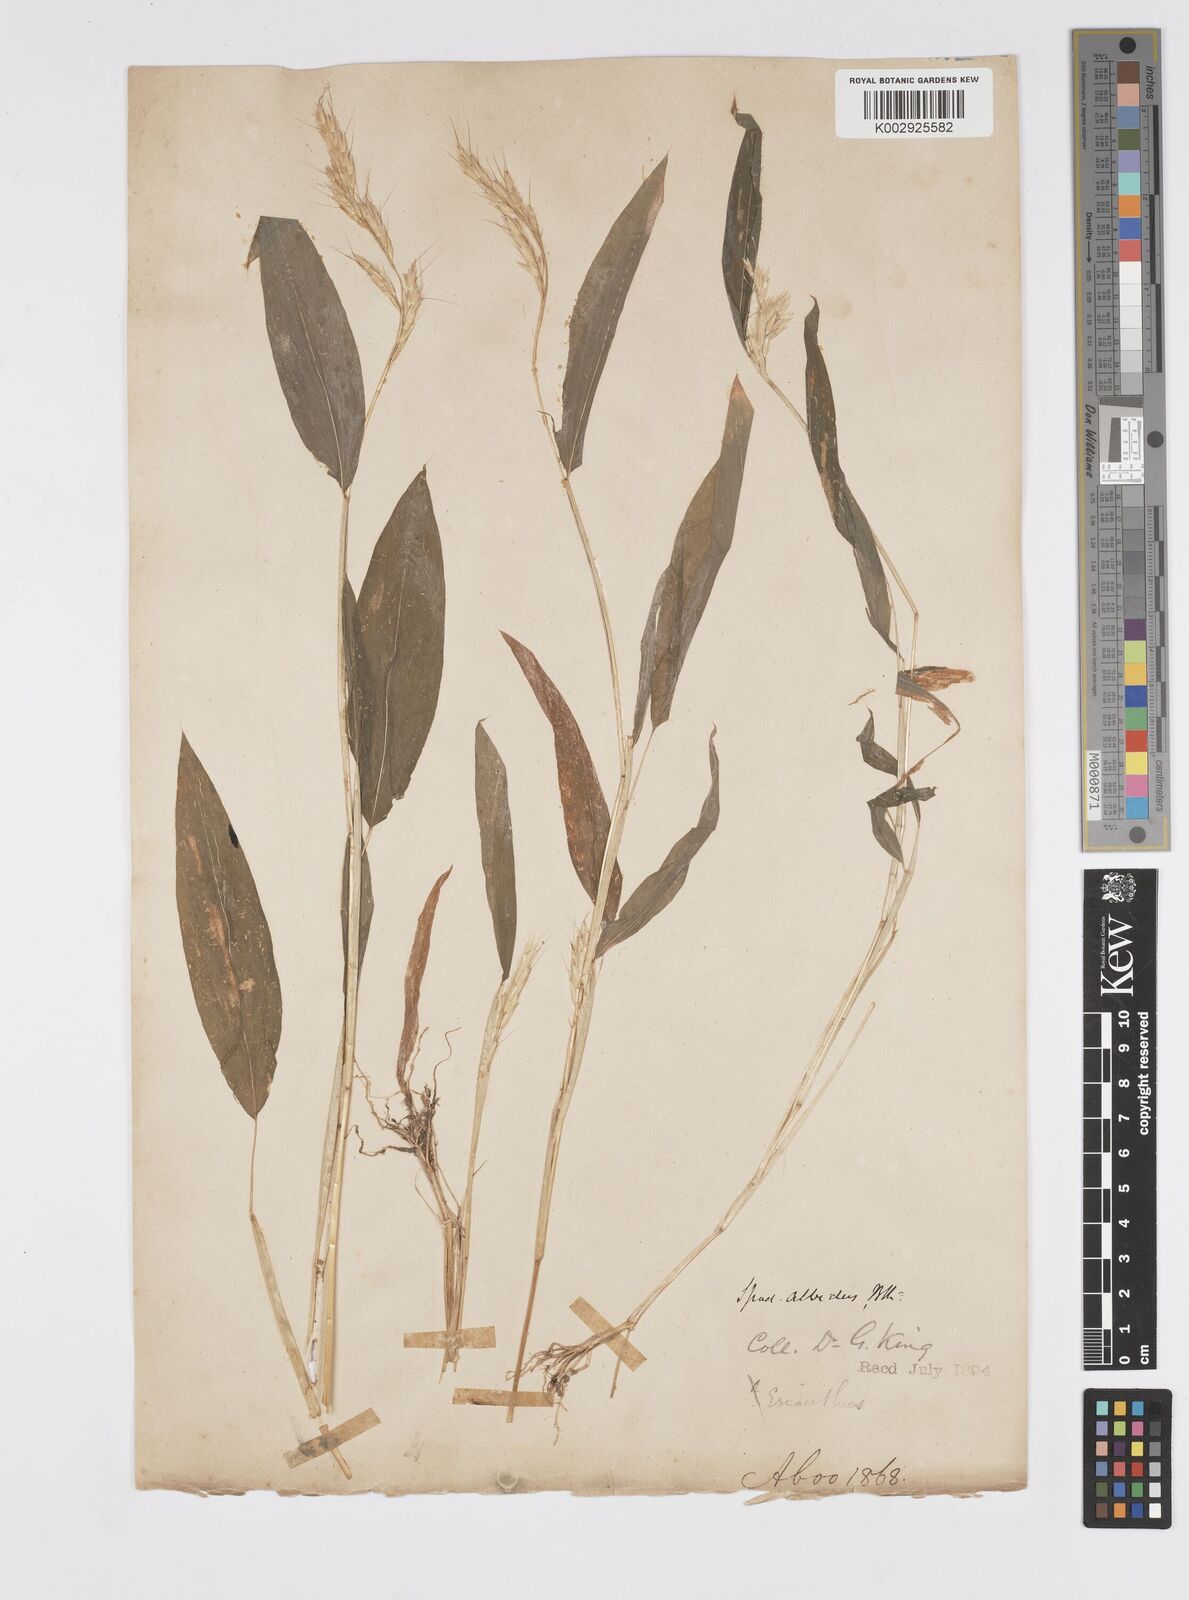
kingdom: Plantae
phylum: Tracheophyta
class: Liliopsida
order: Poales
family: Poaceae
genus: Spodiopogon
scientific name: Spodiopogon rhizophorus
